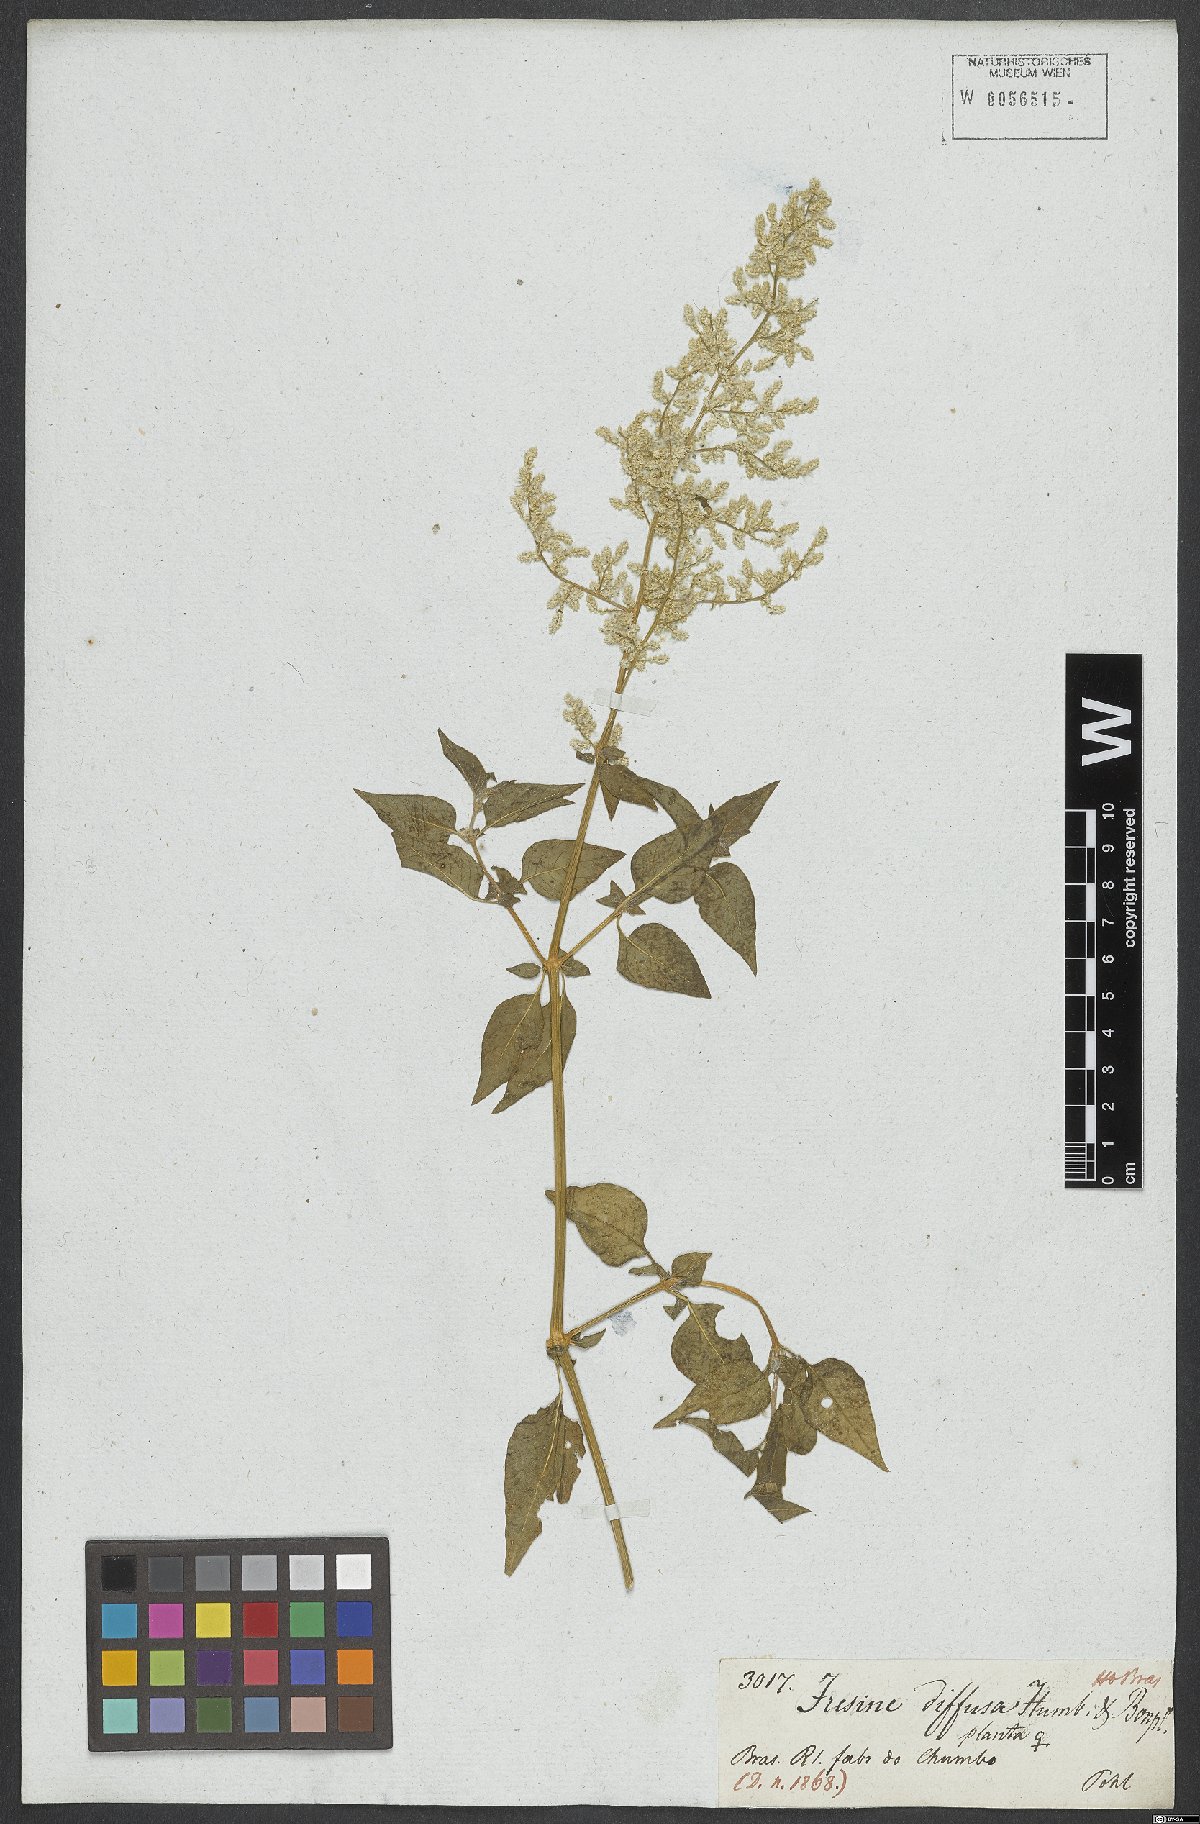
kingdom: Plantae
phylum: Tracheophyta
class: Magnoliopsida
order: Caryophyllales
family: Amaranthaceae
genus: Iresine
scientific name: Iresine diffusa
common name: Juba's-bush
